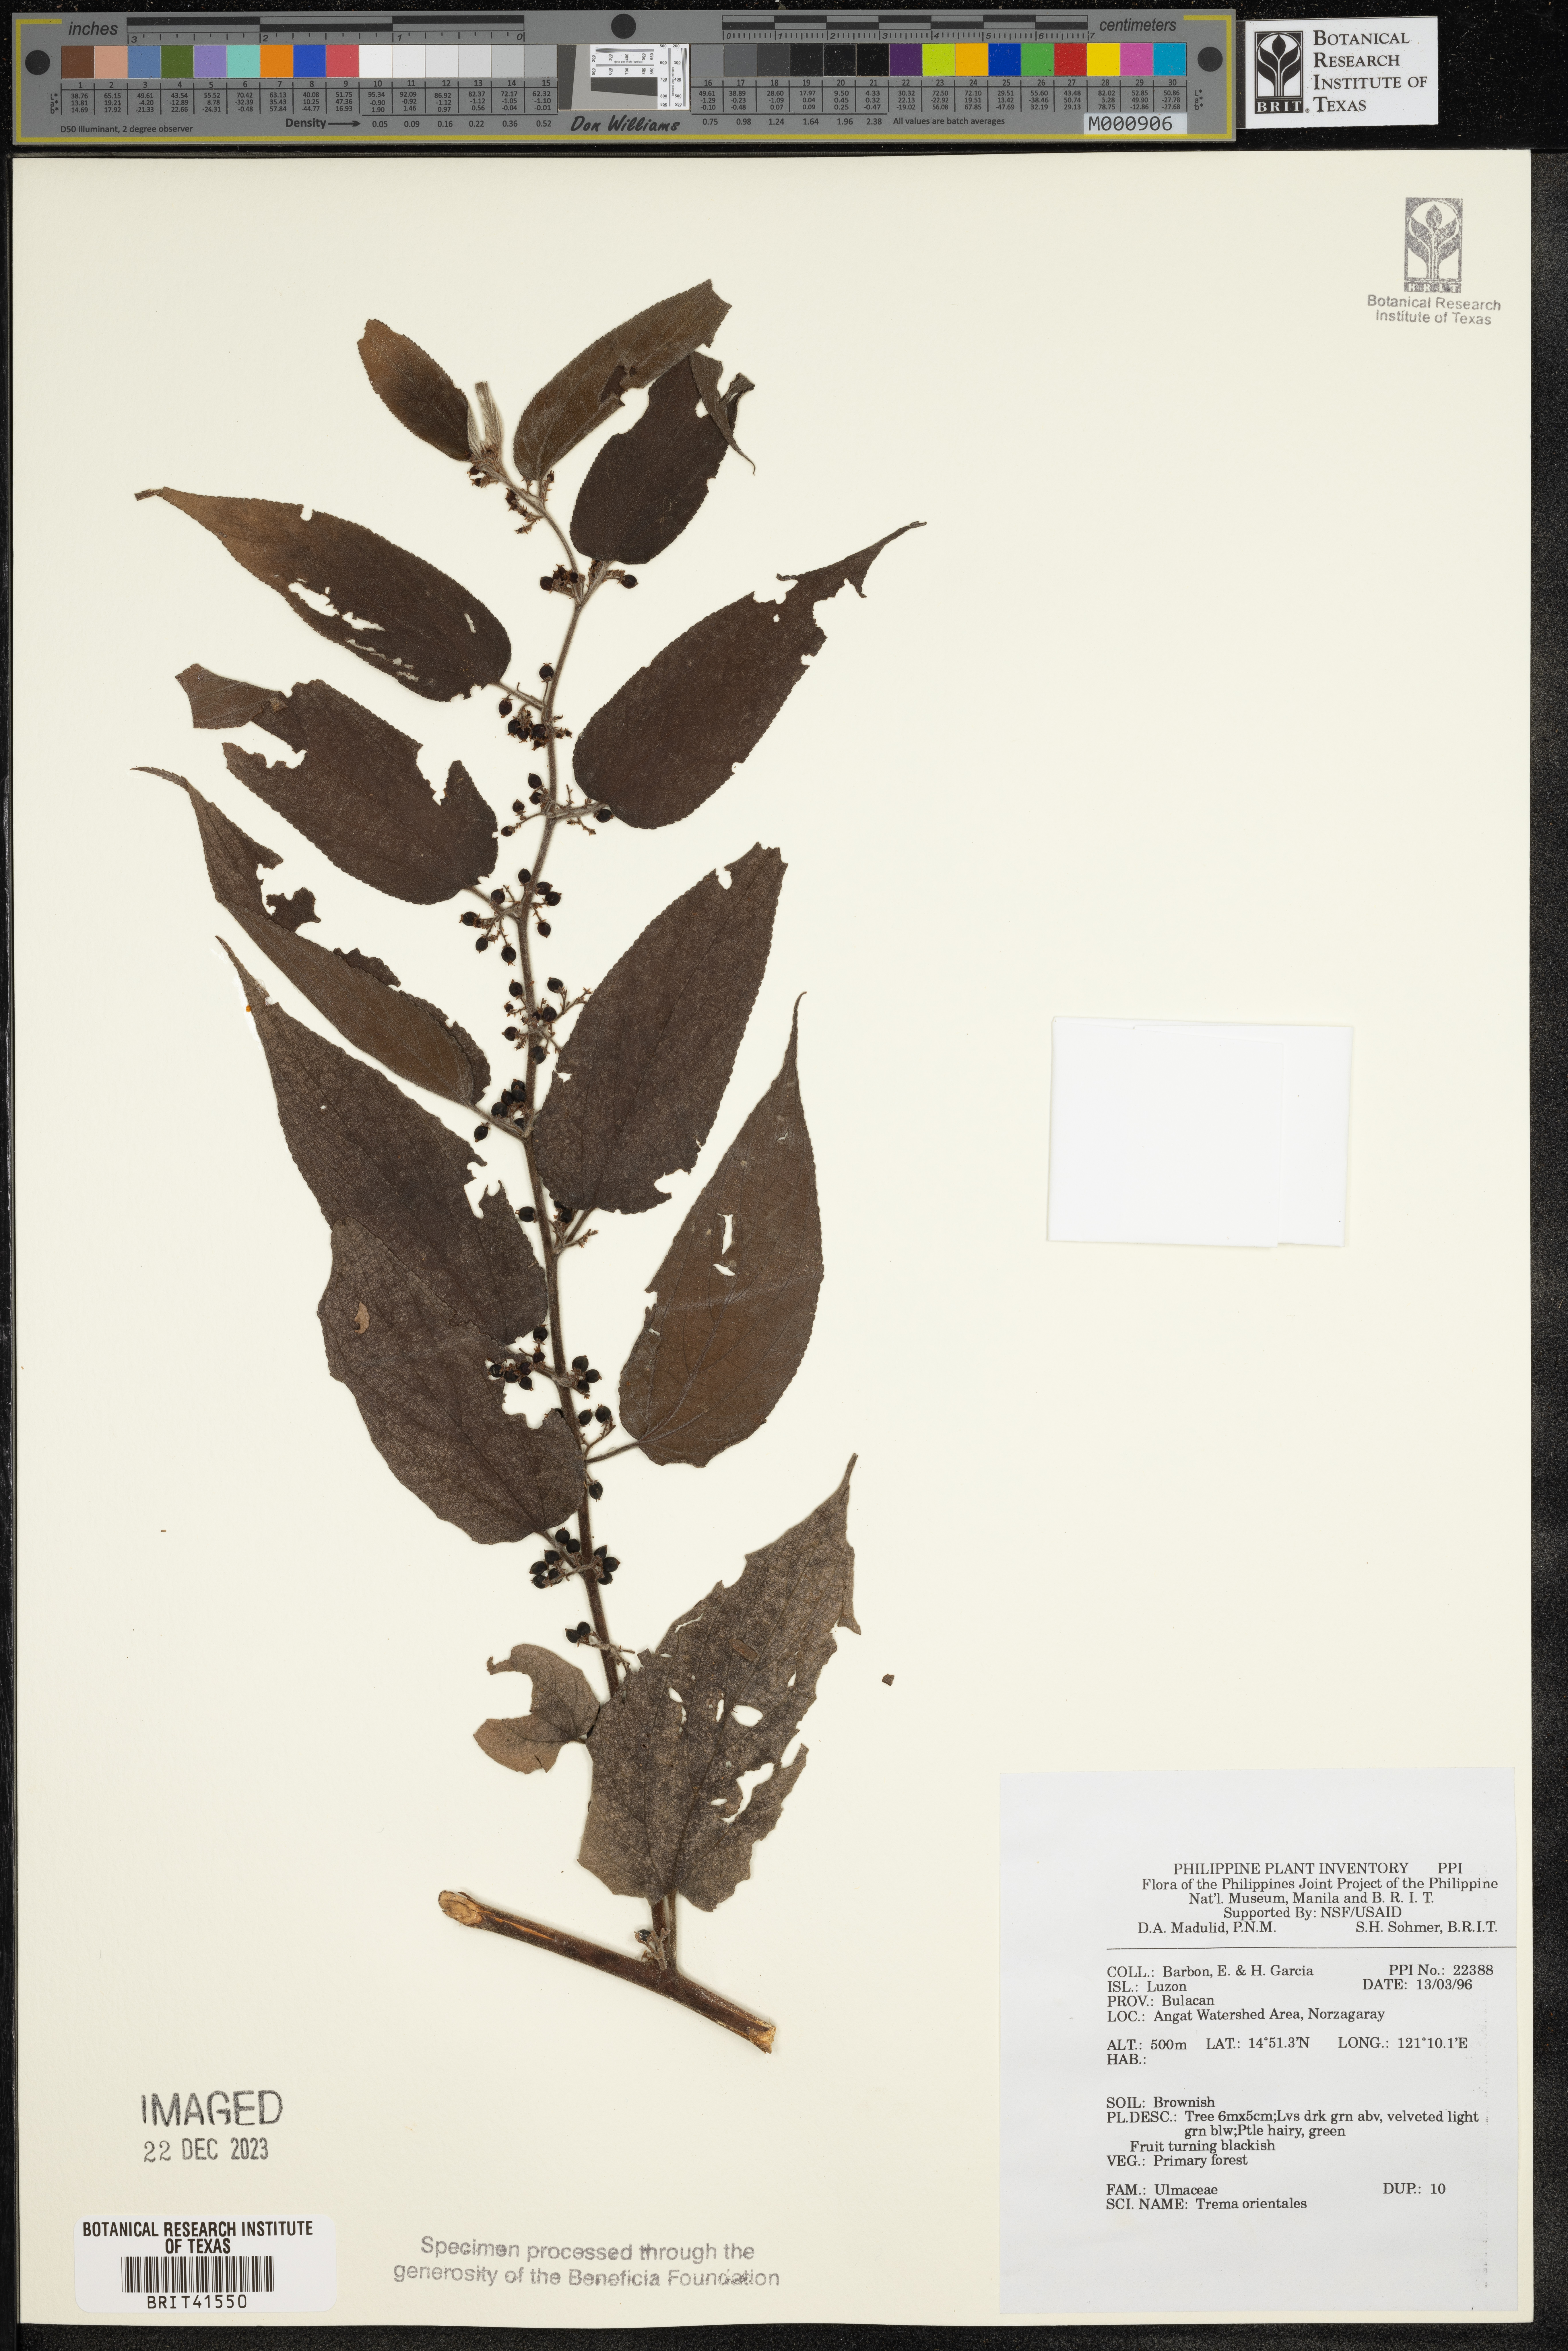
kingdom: Plantae
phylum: Tracheophyta
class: Magnoliopsida
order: Rosales
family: Cannabaceae
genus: Trema
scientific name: Trema orientale
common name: Indian charcoal tree
